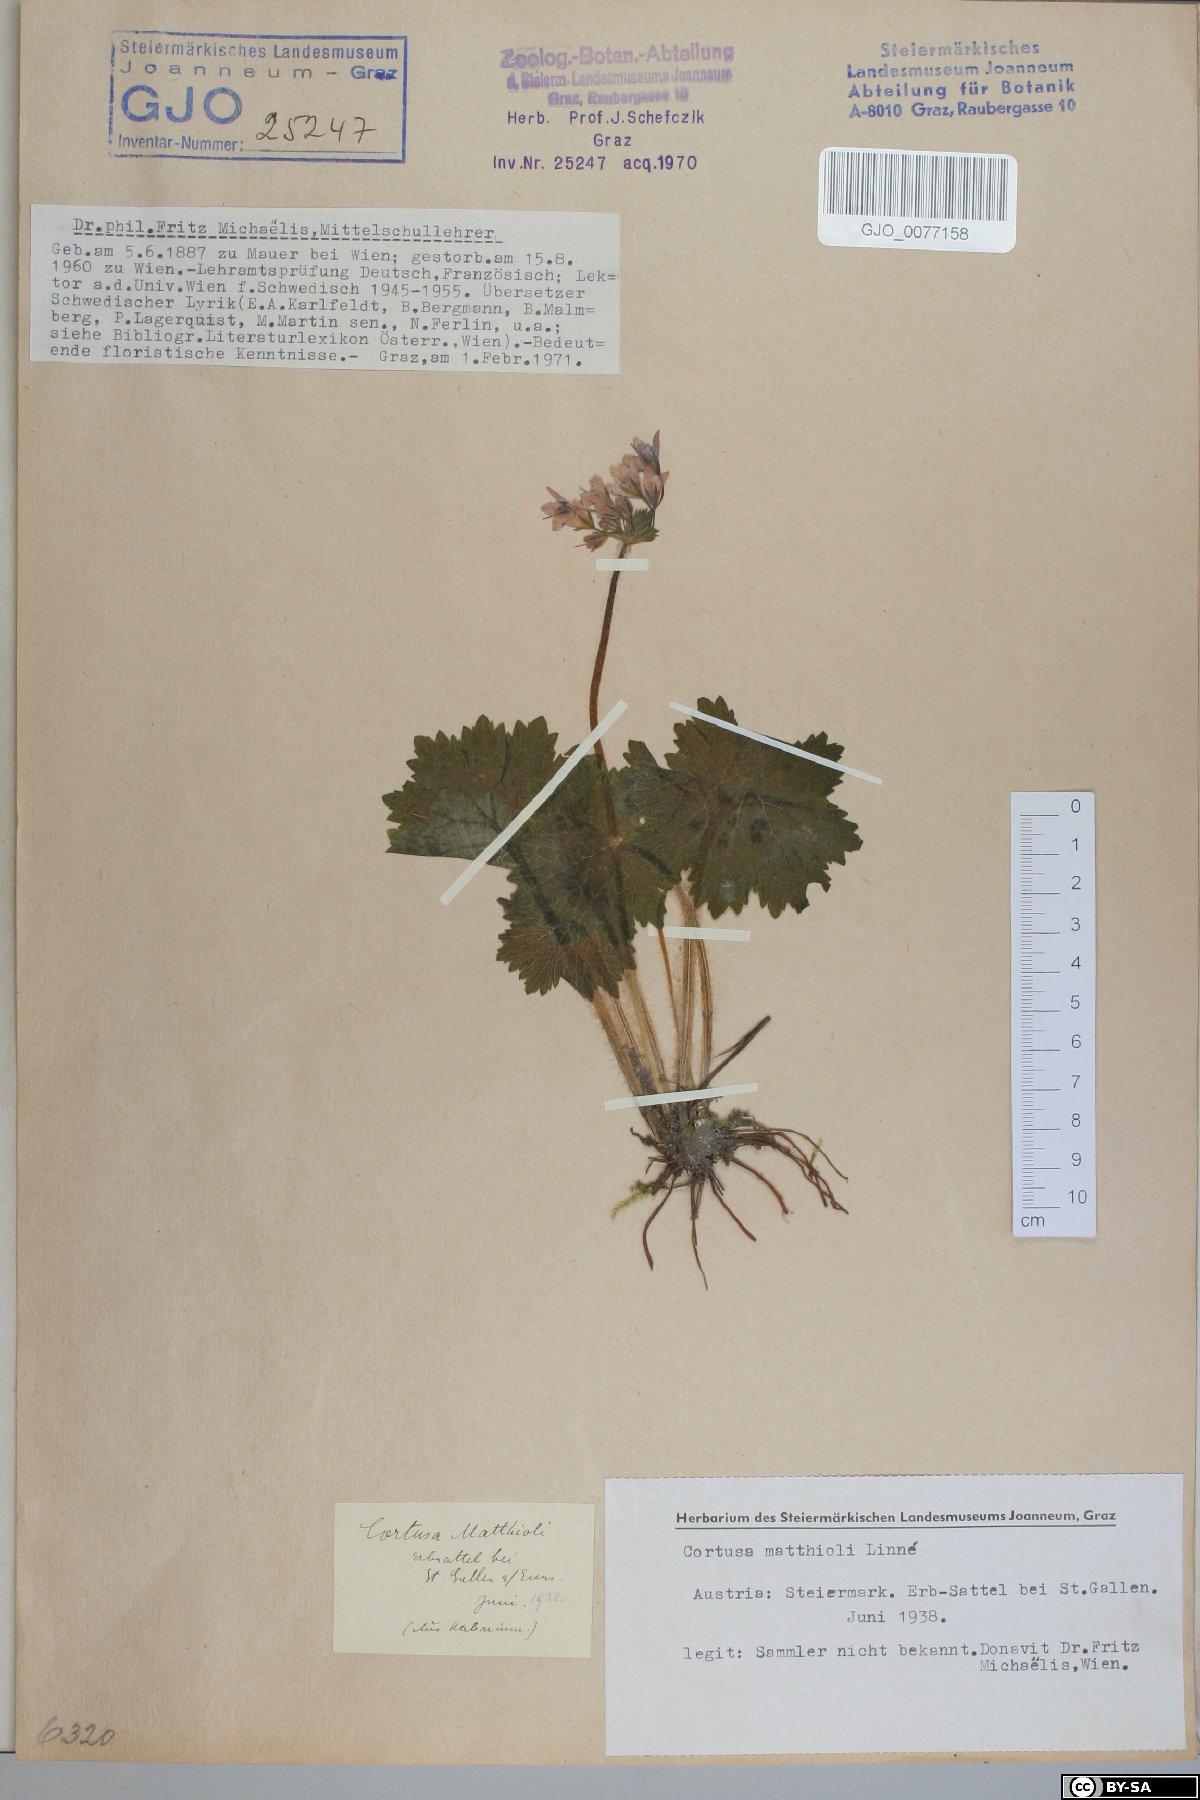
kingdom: Plantae
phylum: Tracheophyta
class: Magnoliopsida
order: Ericales
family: Primulaceae
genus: Primula
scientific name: Primula matthioli
